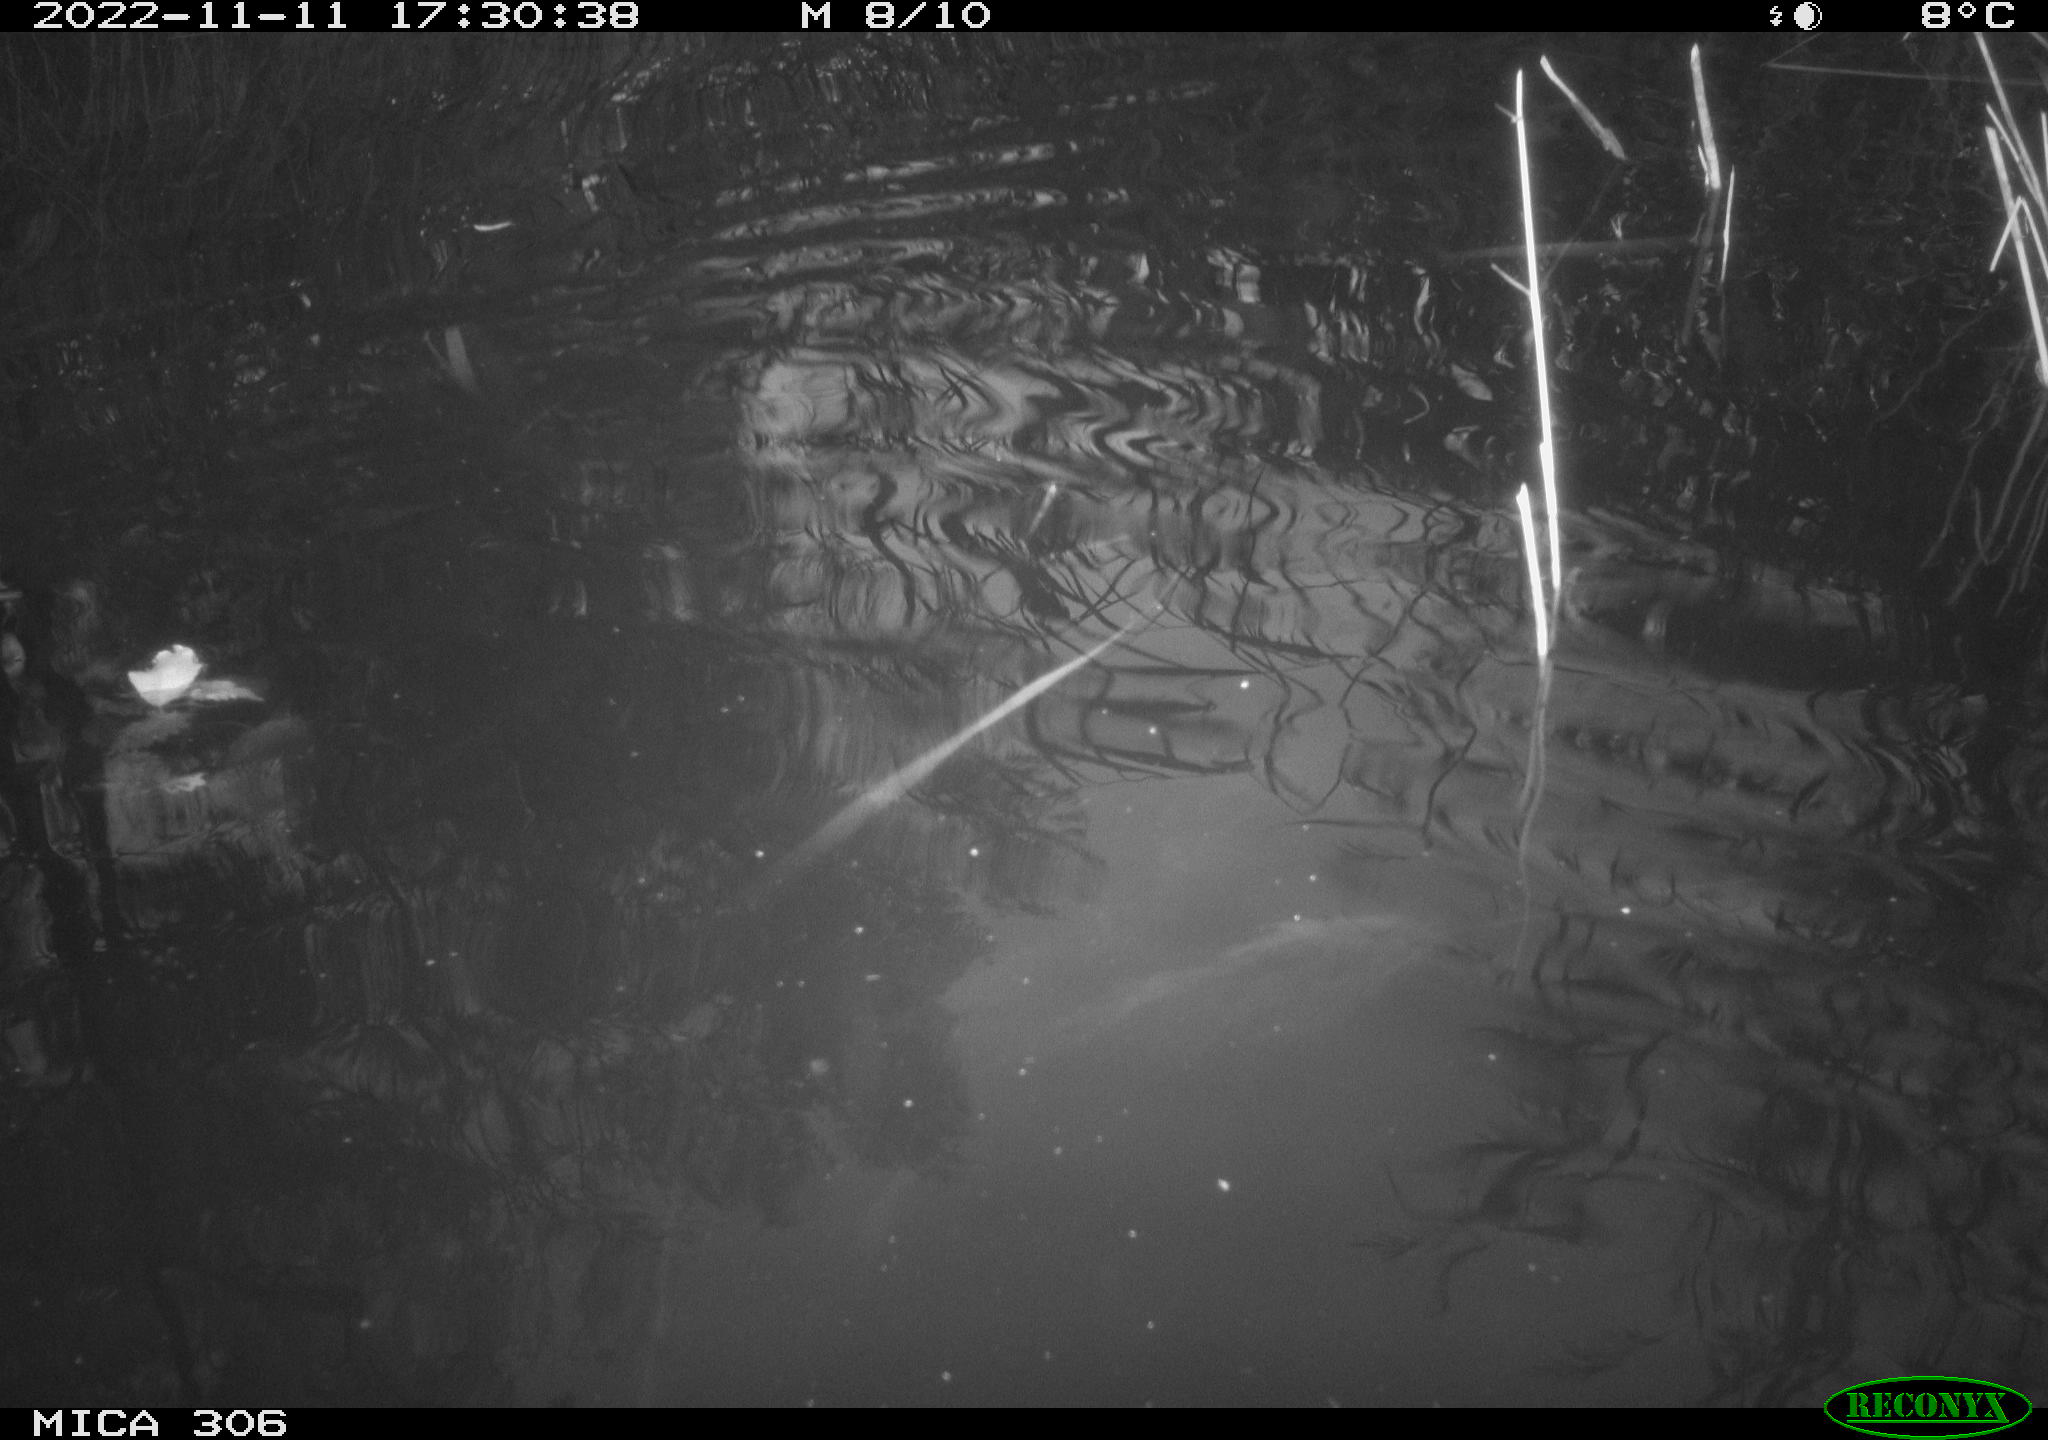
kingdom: Animalia
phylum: Chordata
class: Mammalia
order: Rodentia
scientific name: Rodentia
